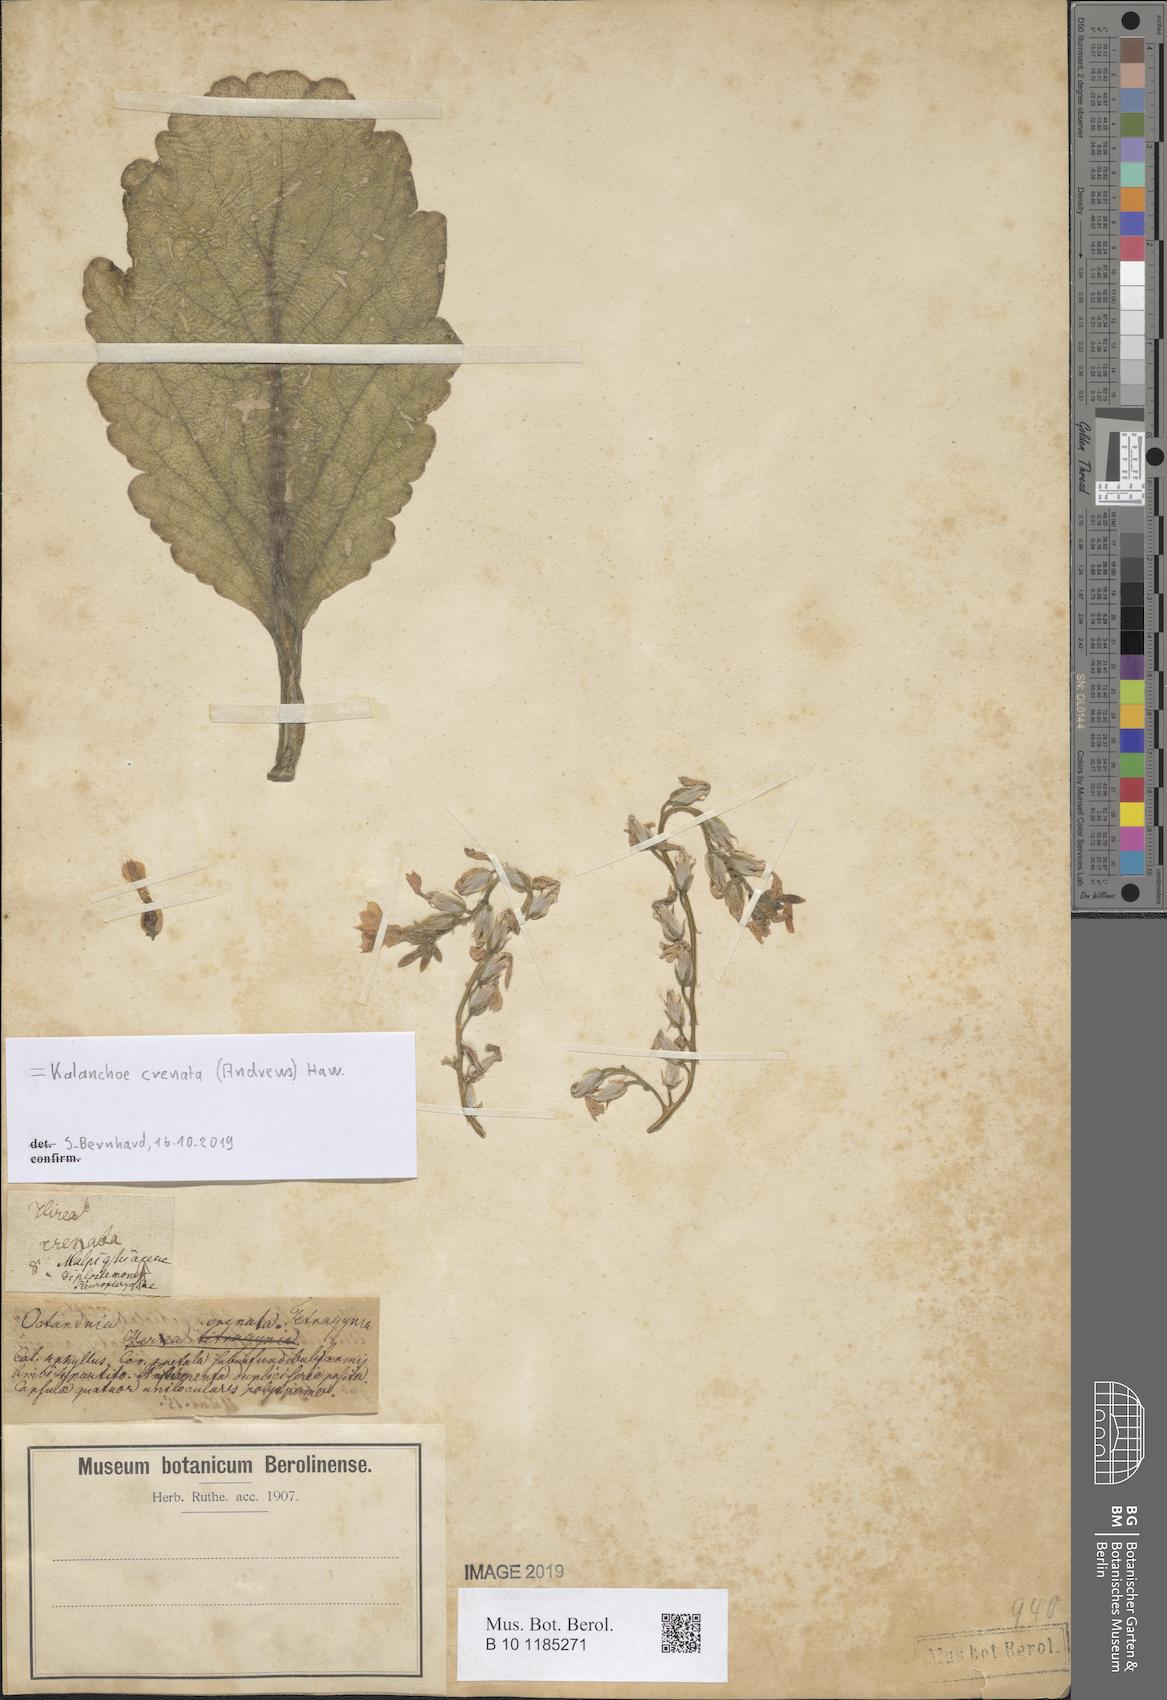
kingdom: Plantae
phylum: Tracheophyta
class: Magnoliopsida
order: Saxifragales
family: Crassulaceae
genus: Kalanchoe
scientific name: Kalanchoe crenata
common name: Neverdie
